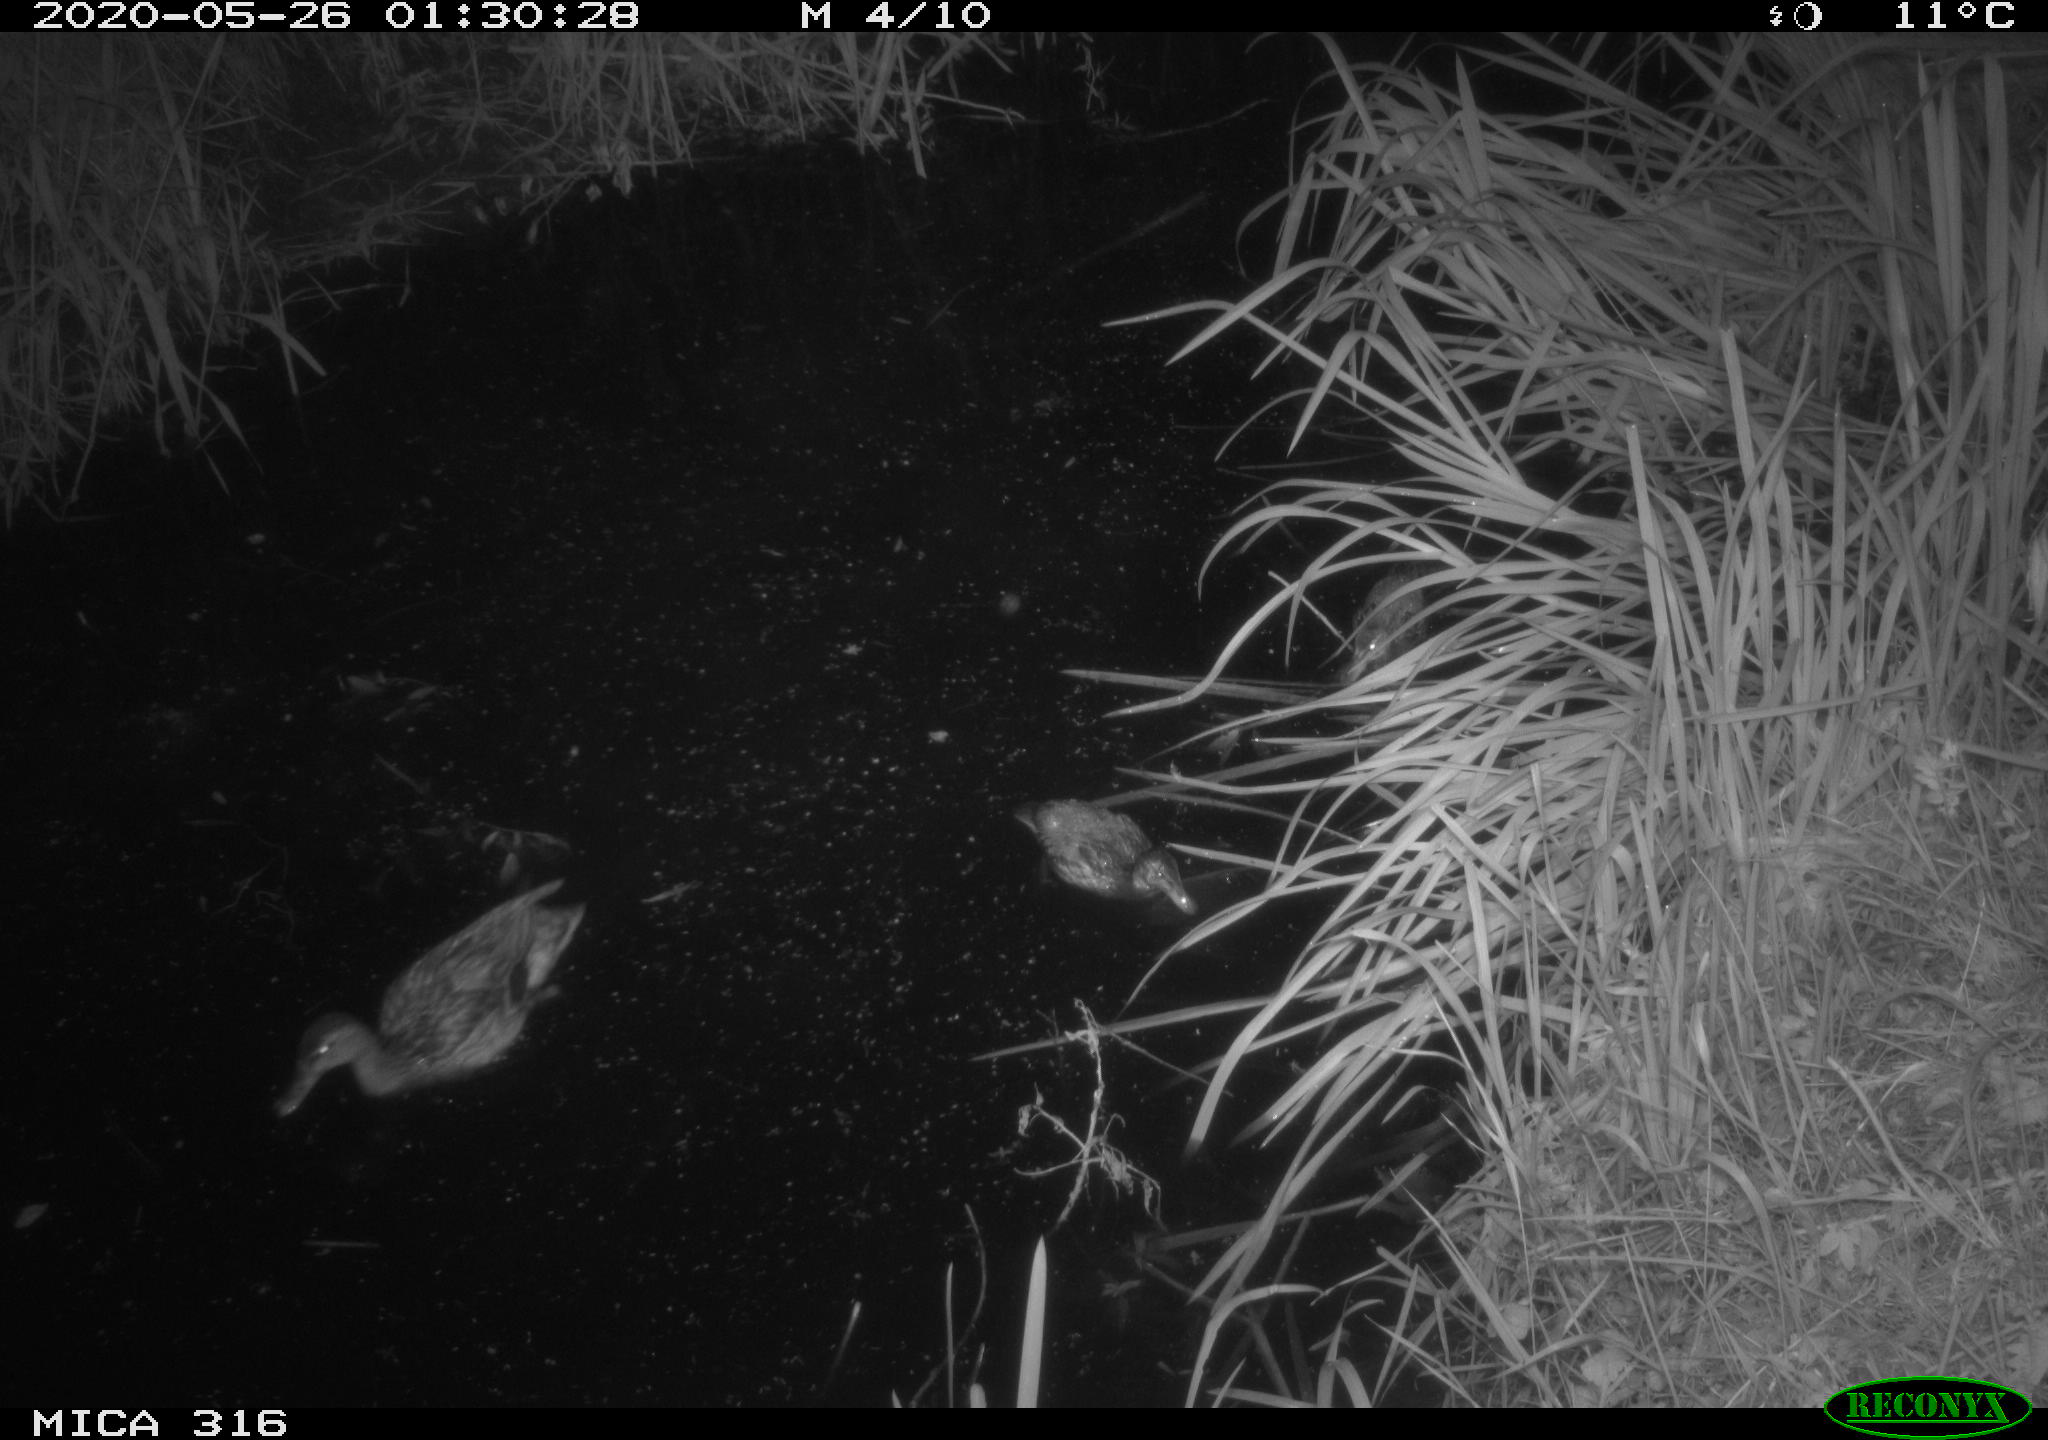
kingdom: Animalia
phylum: Chordata
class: Aves
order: Anseriformes
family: Anatidae
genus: Anas
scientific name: Anas platyrhynchos
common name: Mallard
